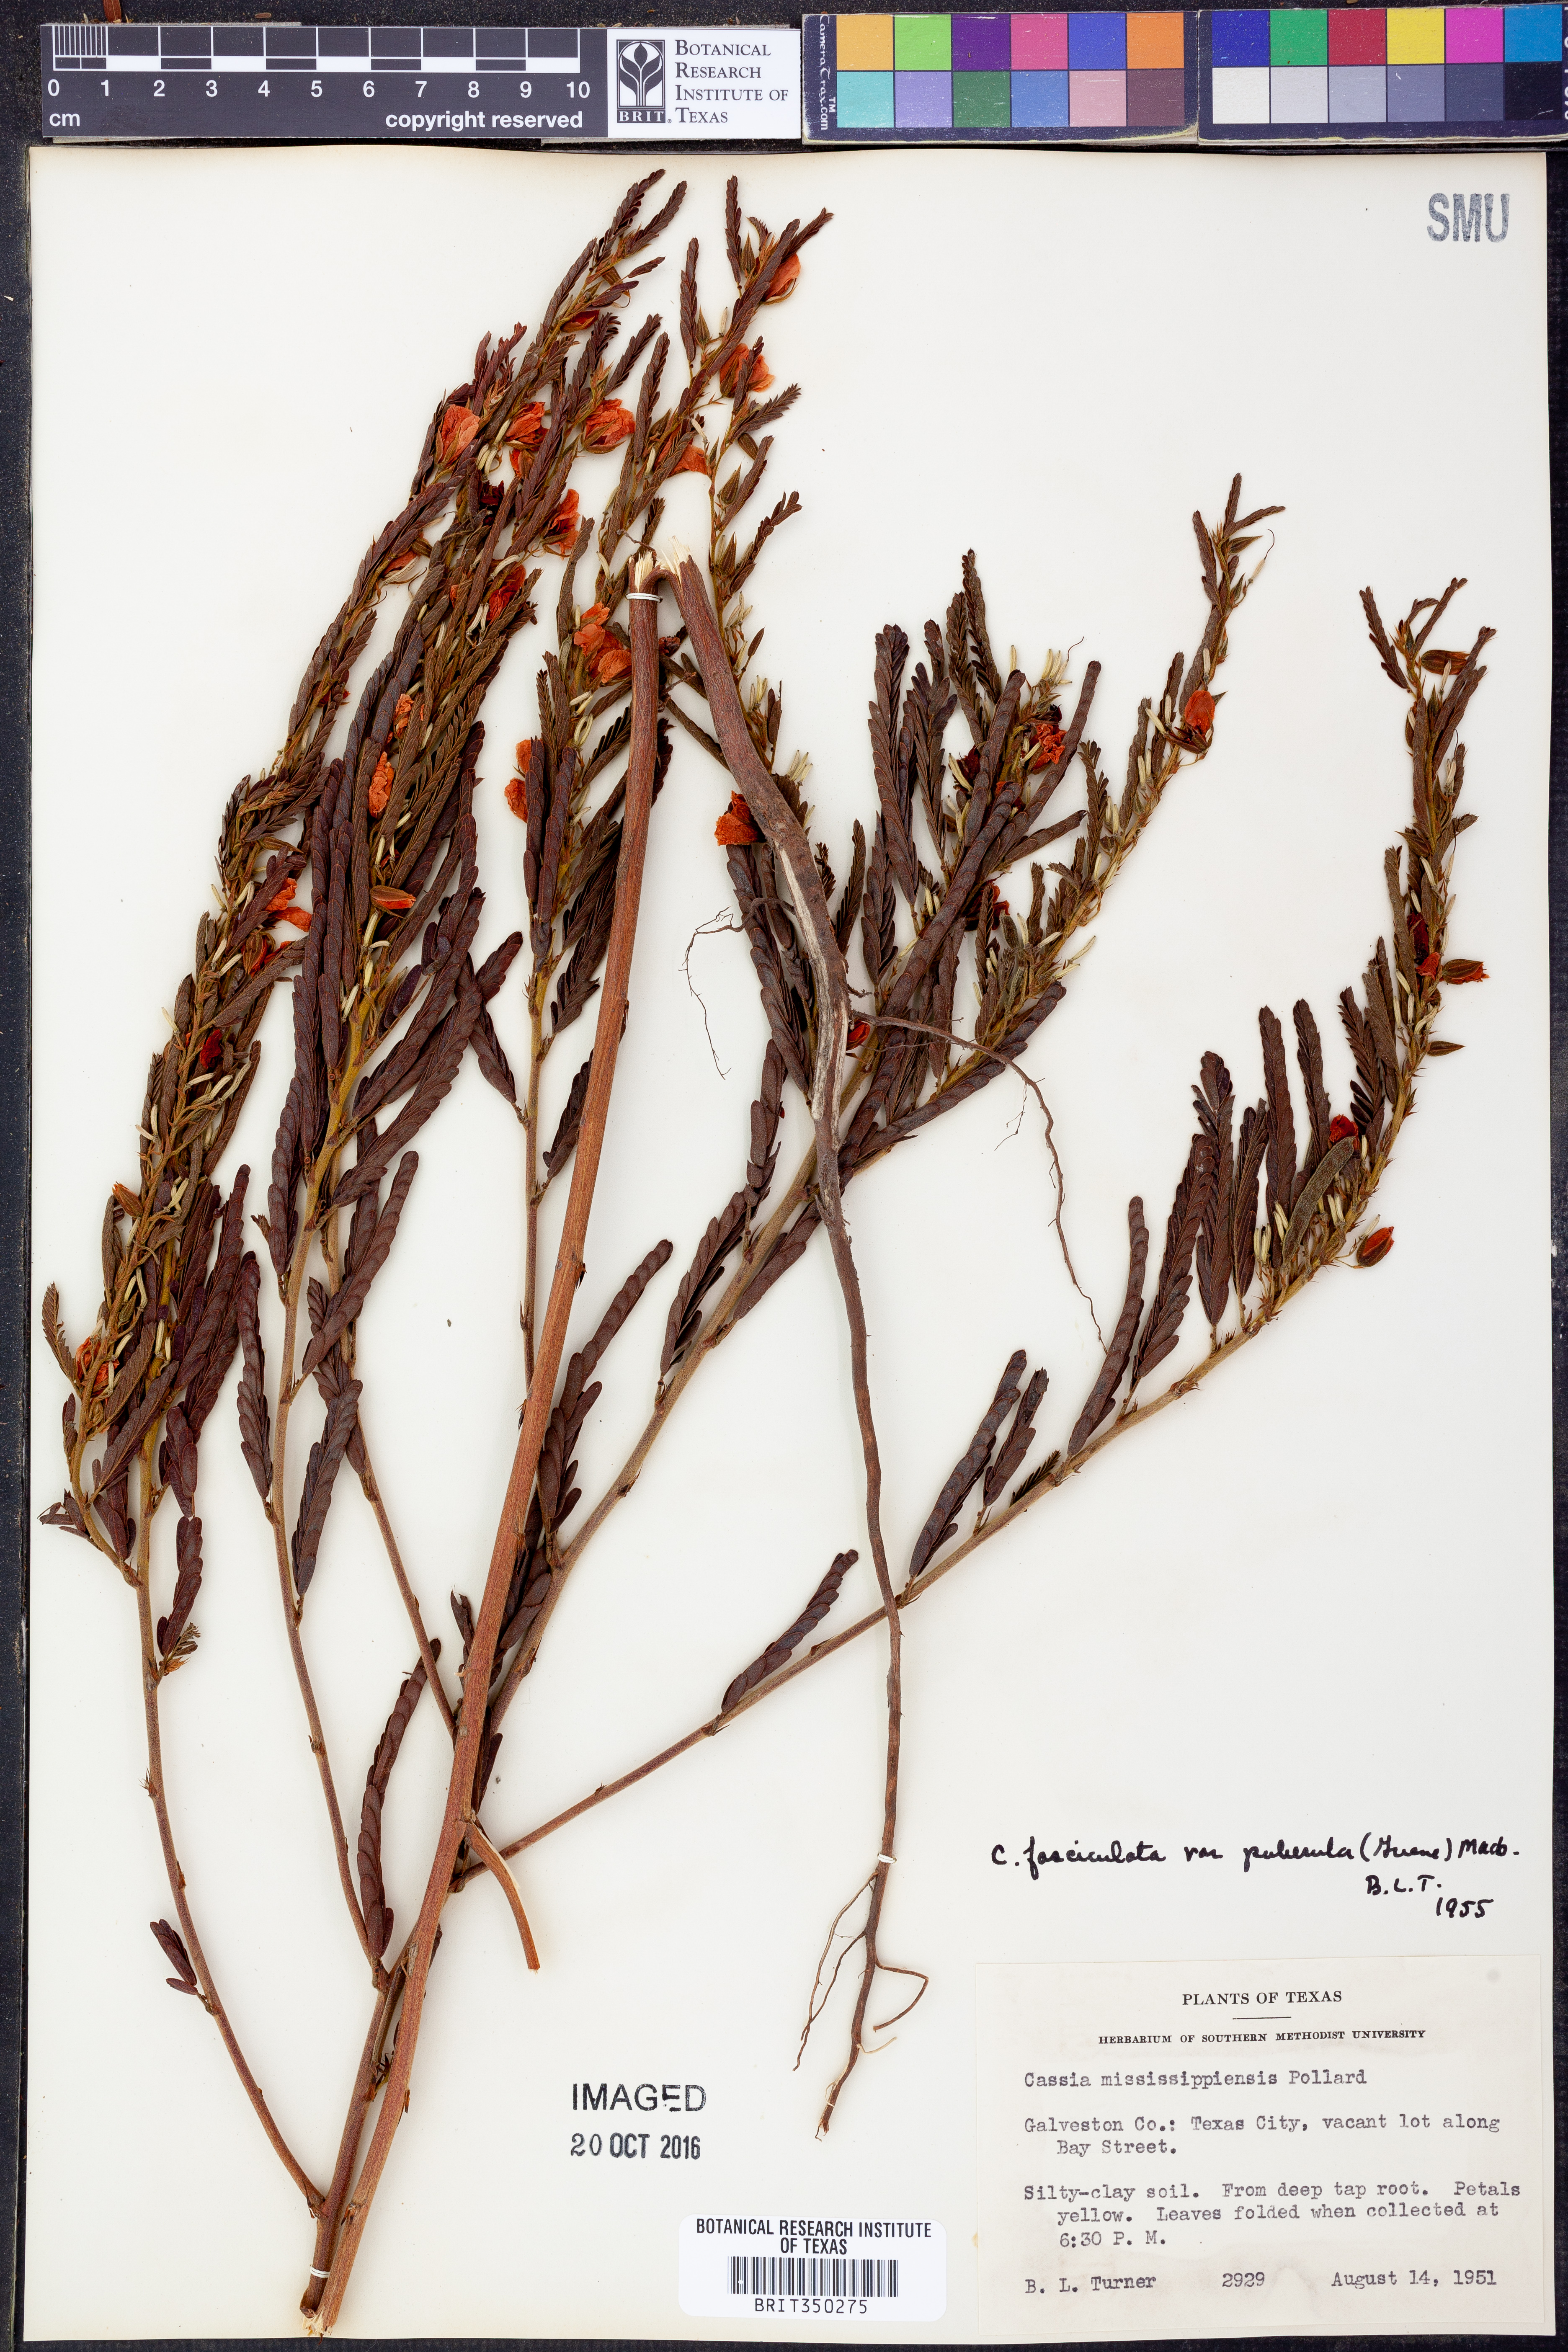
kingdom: Plantae
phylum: Tracheophyta
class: Magnoliopsida
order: Fabales
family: Fabaceae
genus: Chamaecrista
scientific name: Chamaecrista fasciculata
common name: Golden cassia
